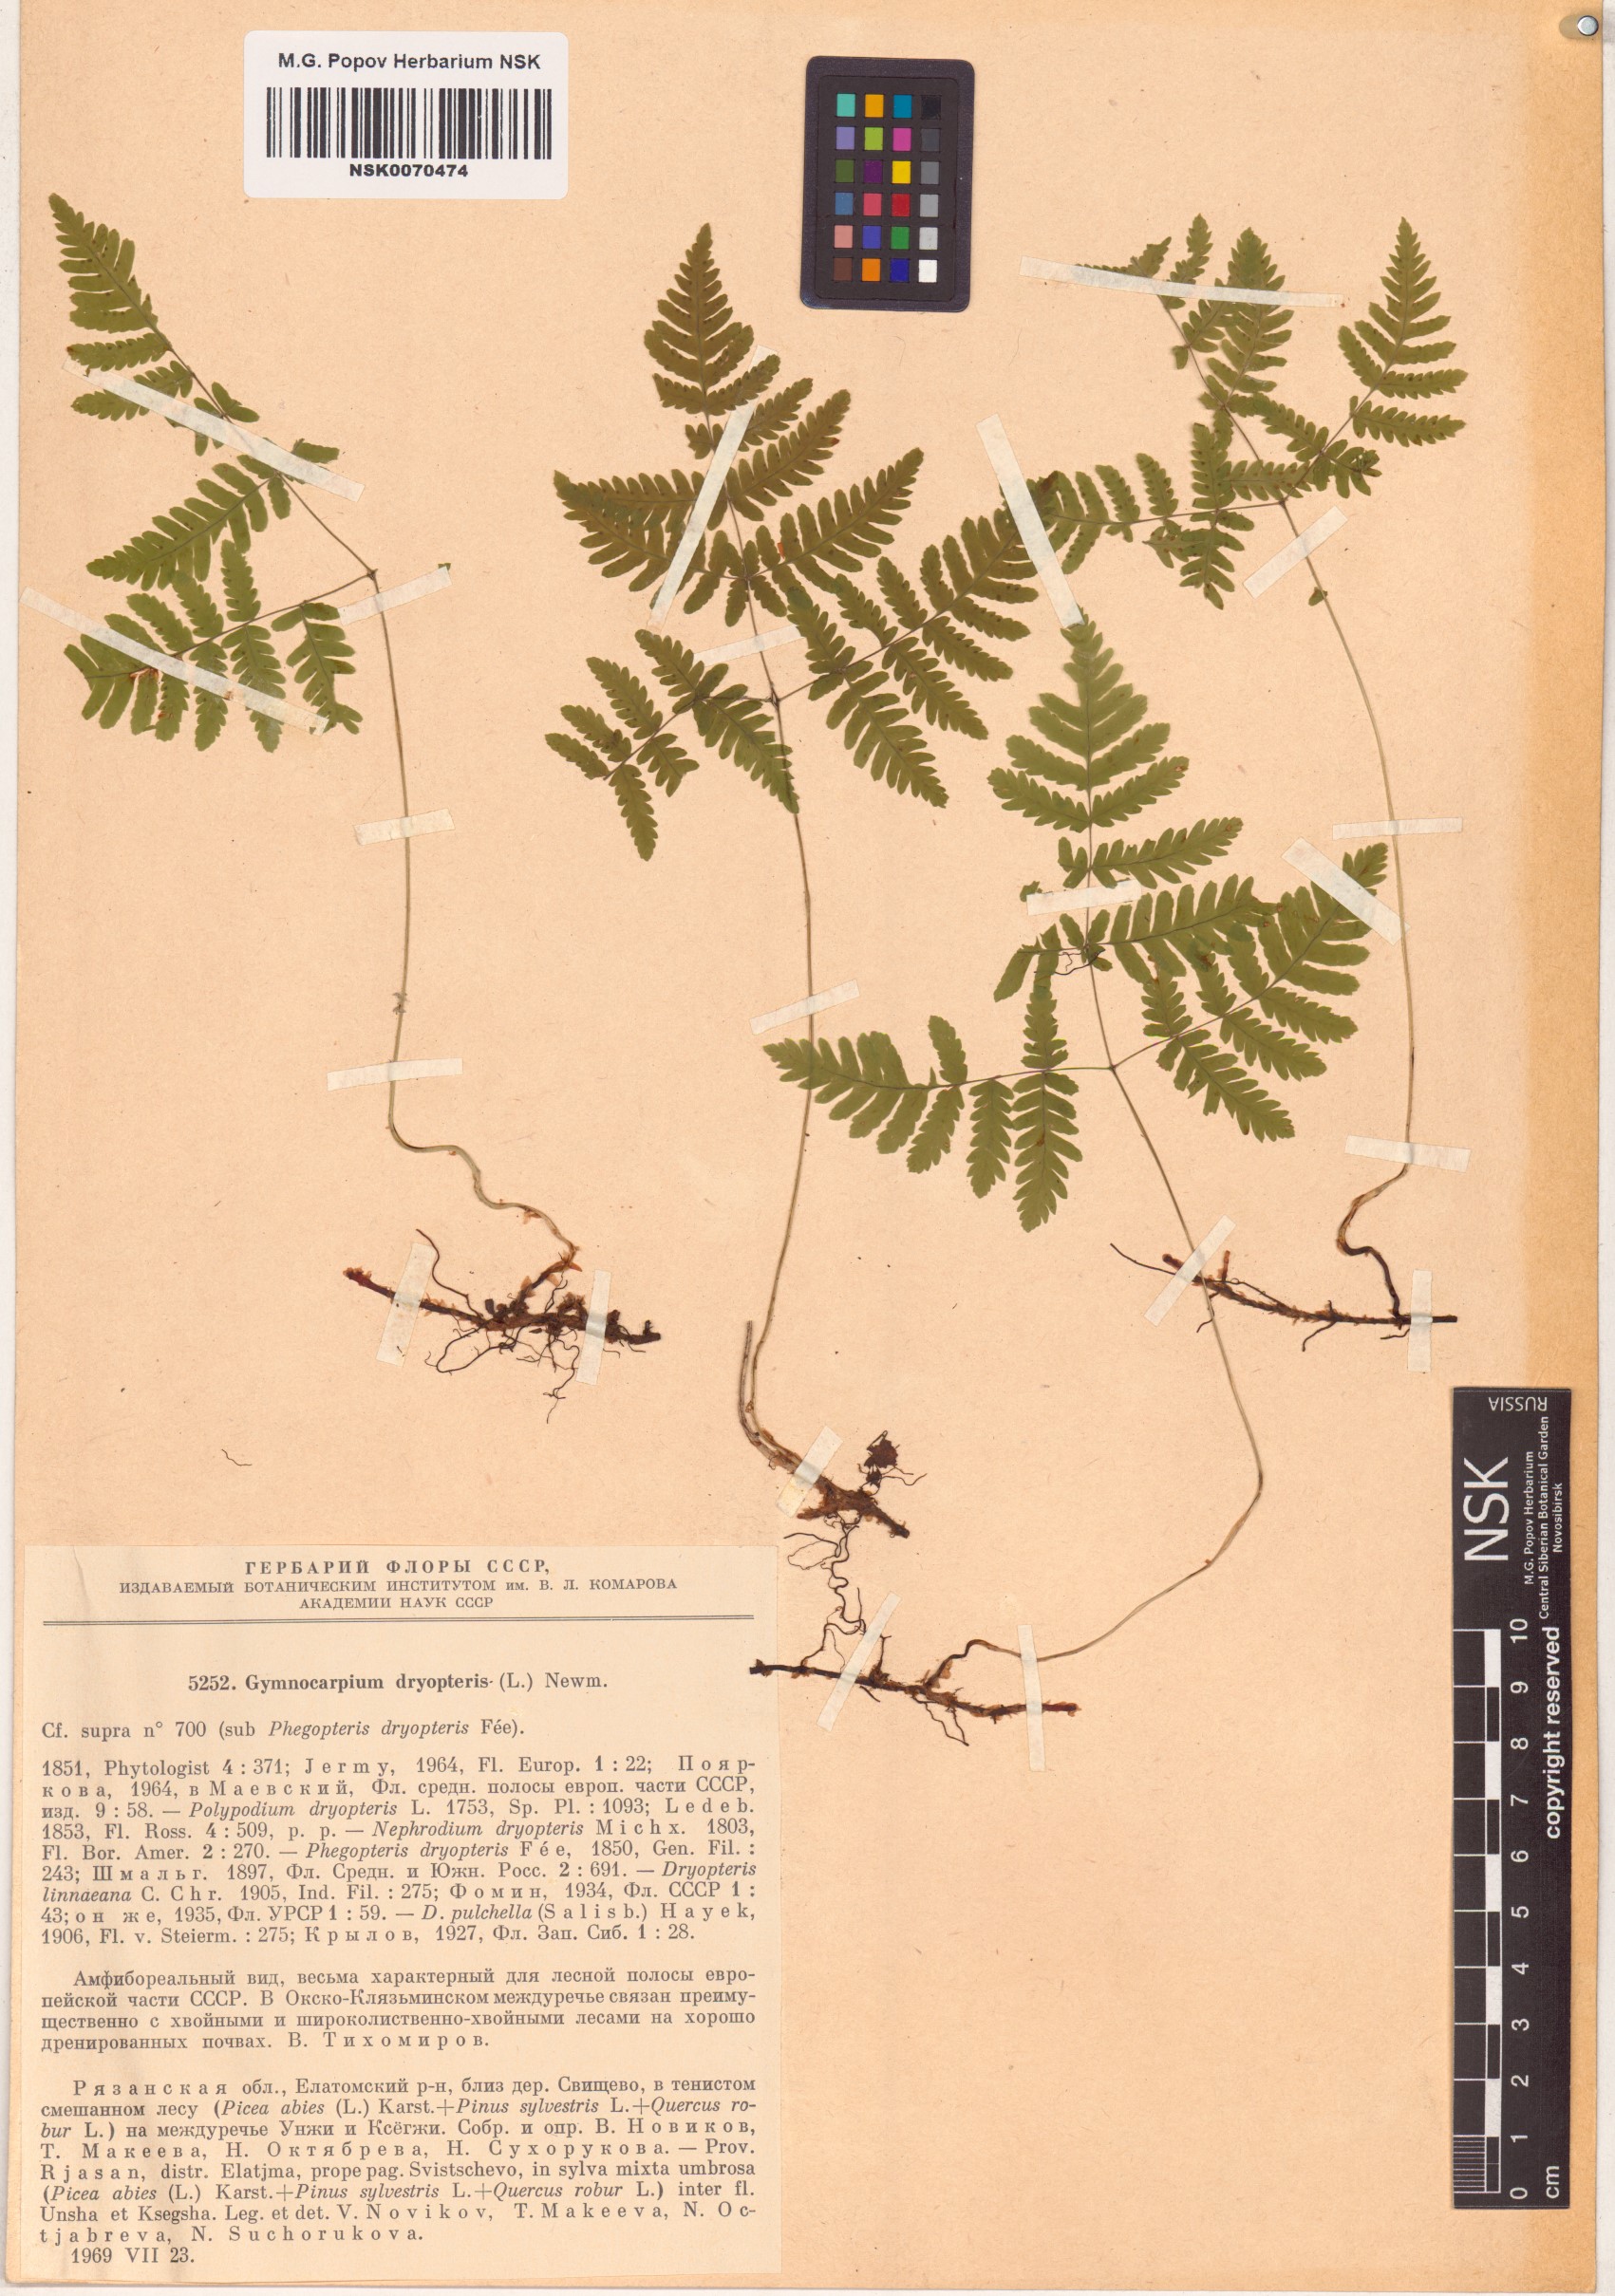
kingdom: Plantae
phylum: Tracheophyta
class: Polypodiopsida
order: Polypodiales
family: Cystopteridaceae
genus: Gymnocarpium
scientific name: Gymnocarpium dryopteris
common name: Oak fern
